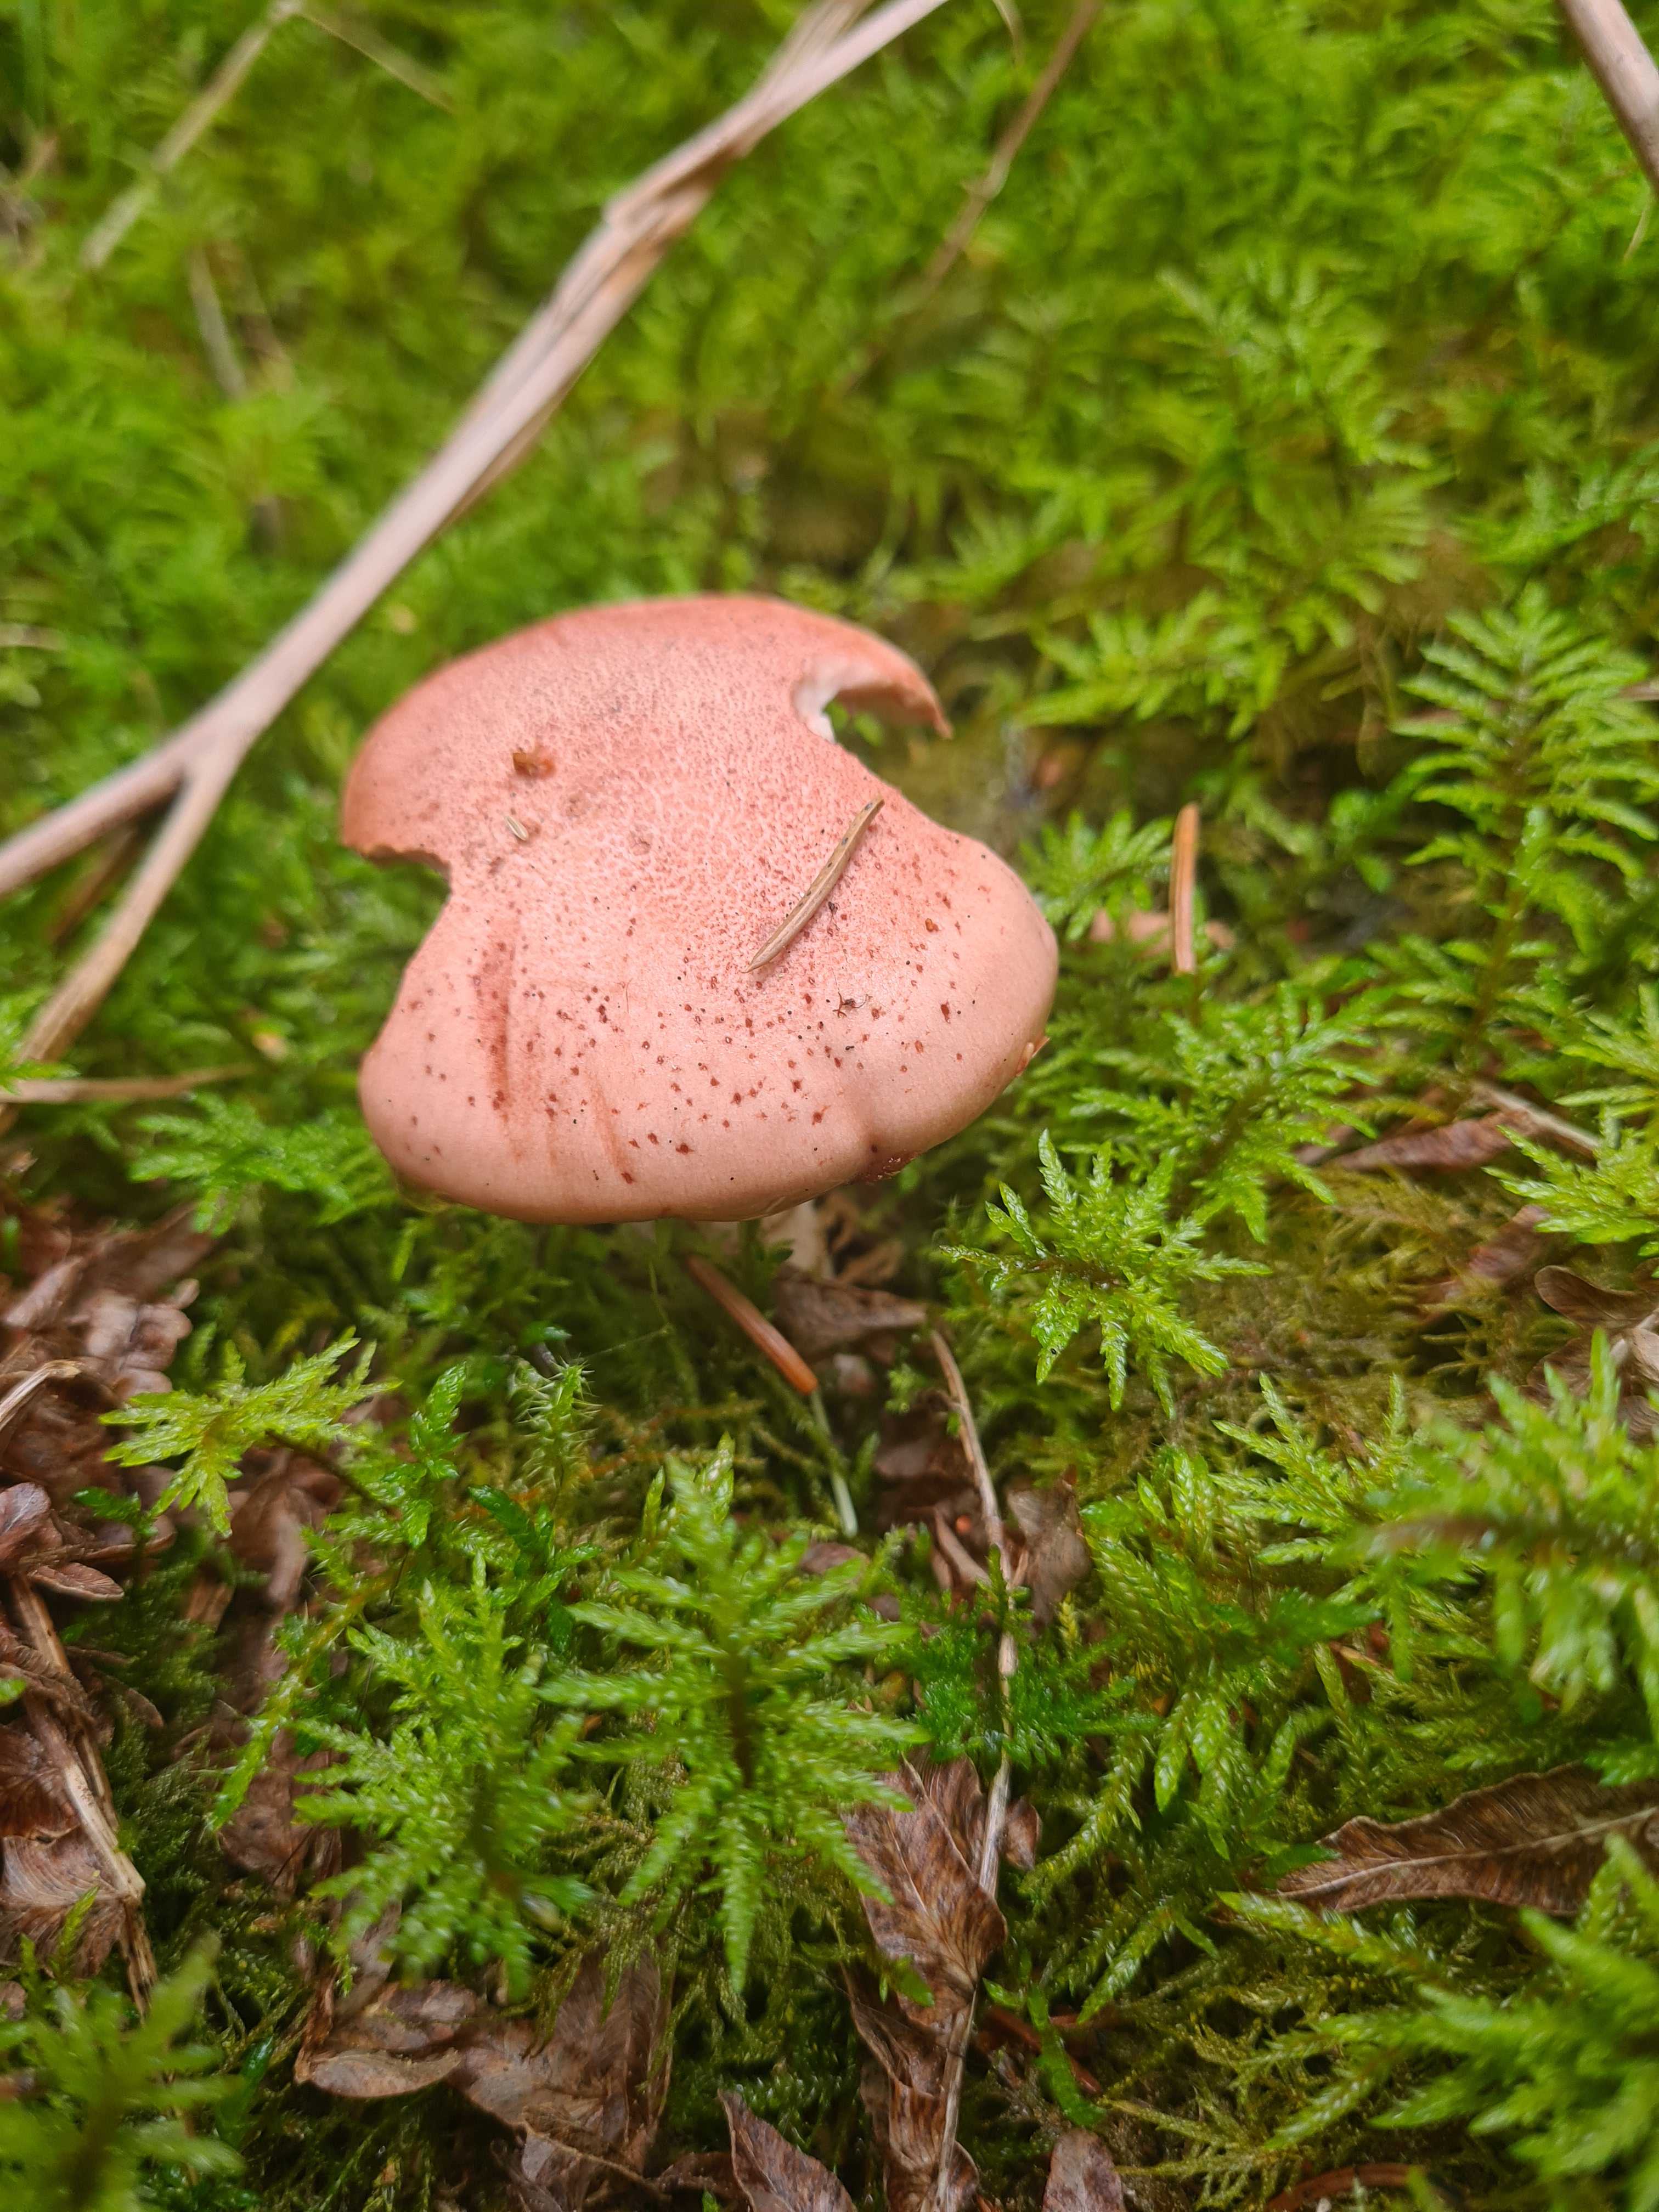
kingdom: Fungi
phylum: Basidiomycota
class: Agaricomycetes
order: Agaricales
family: Hygrophoraceae
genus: Hygrophorus
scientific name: Hygrophorus erubescens
